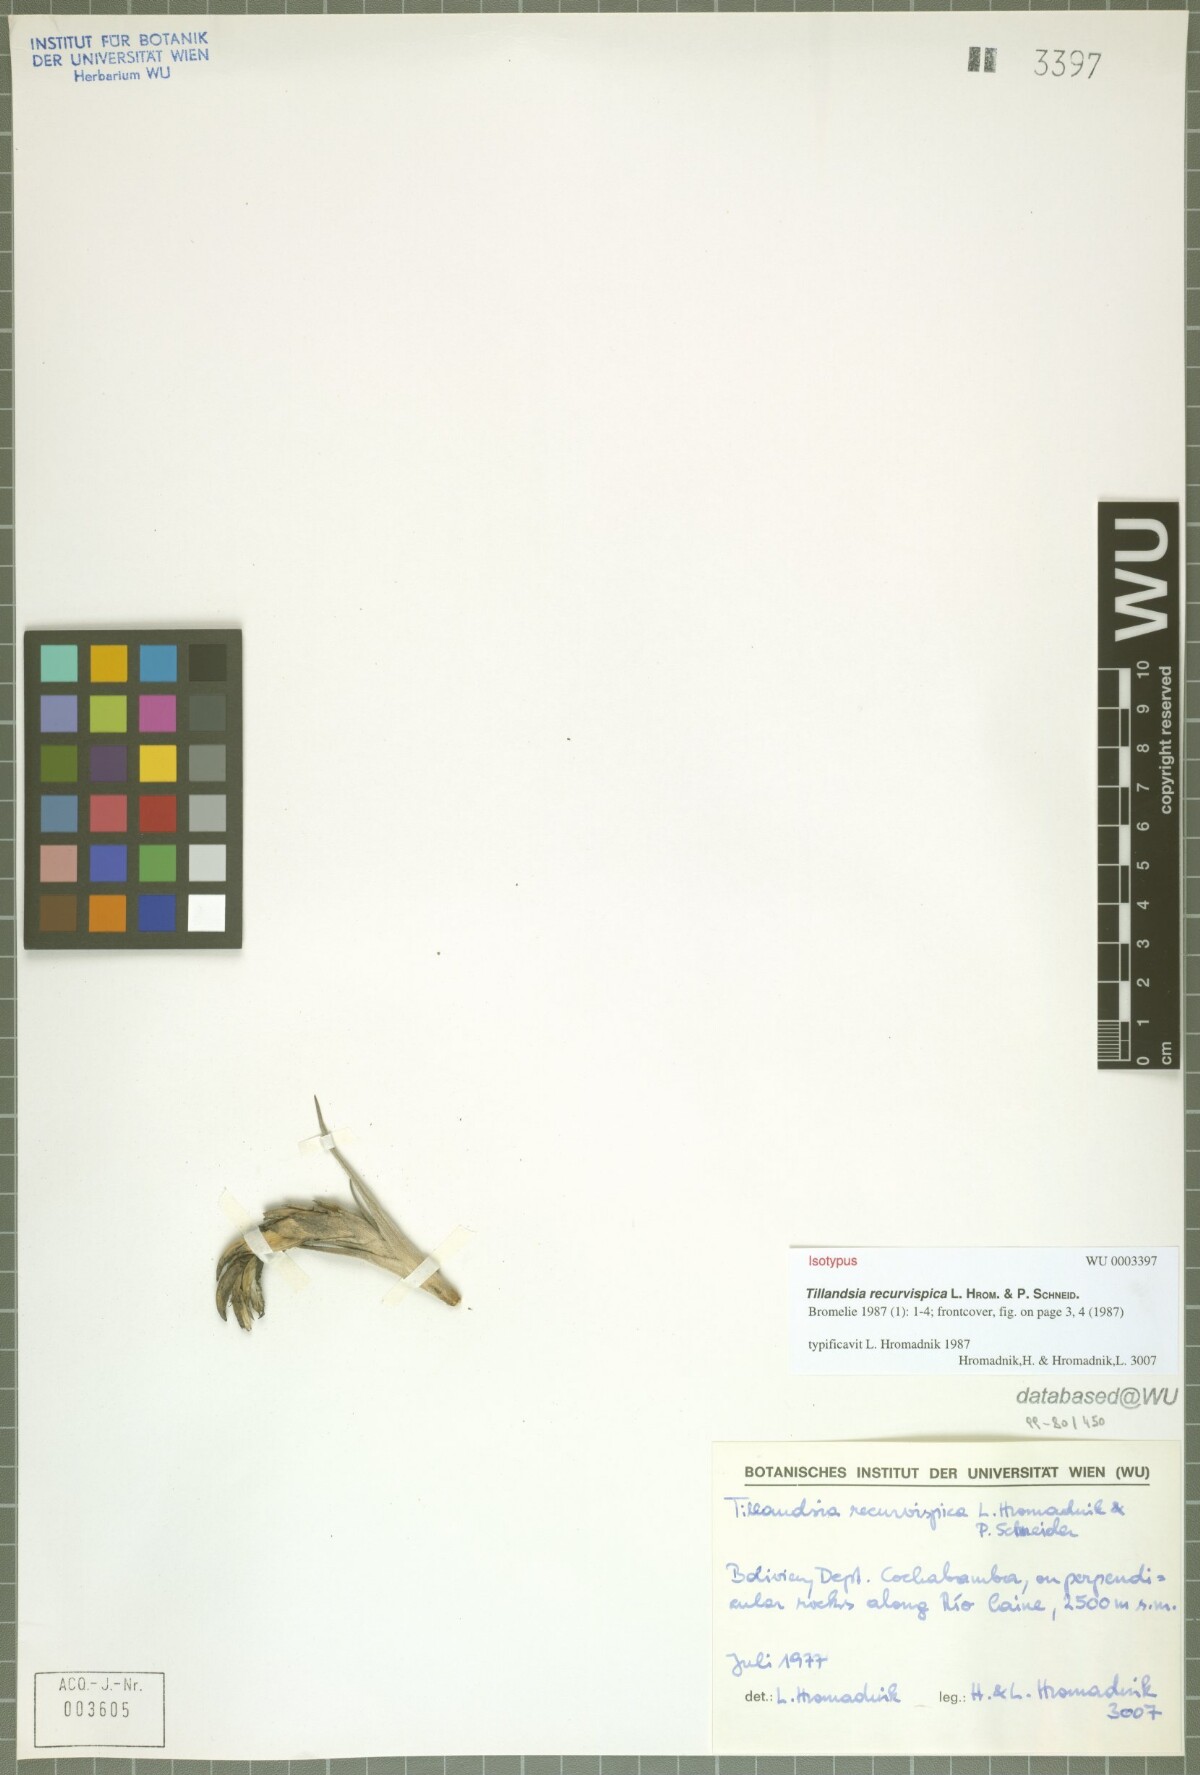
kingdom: Plantae
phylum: Tracheophyta
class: Liliopsida
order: Poales
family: Bromeliaceae
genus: Tillandsia
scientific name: Tillandsia recurvispica
